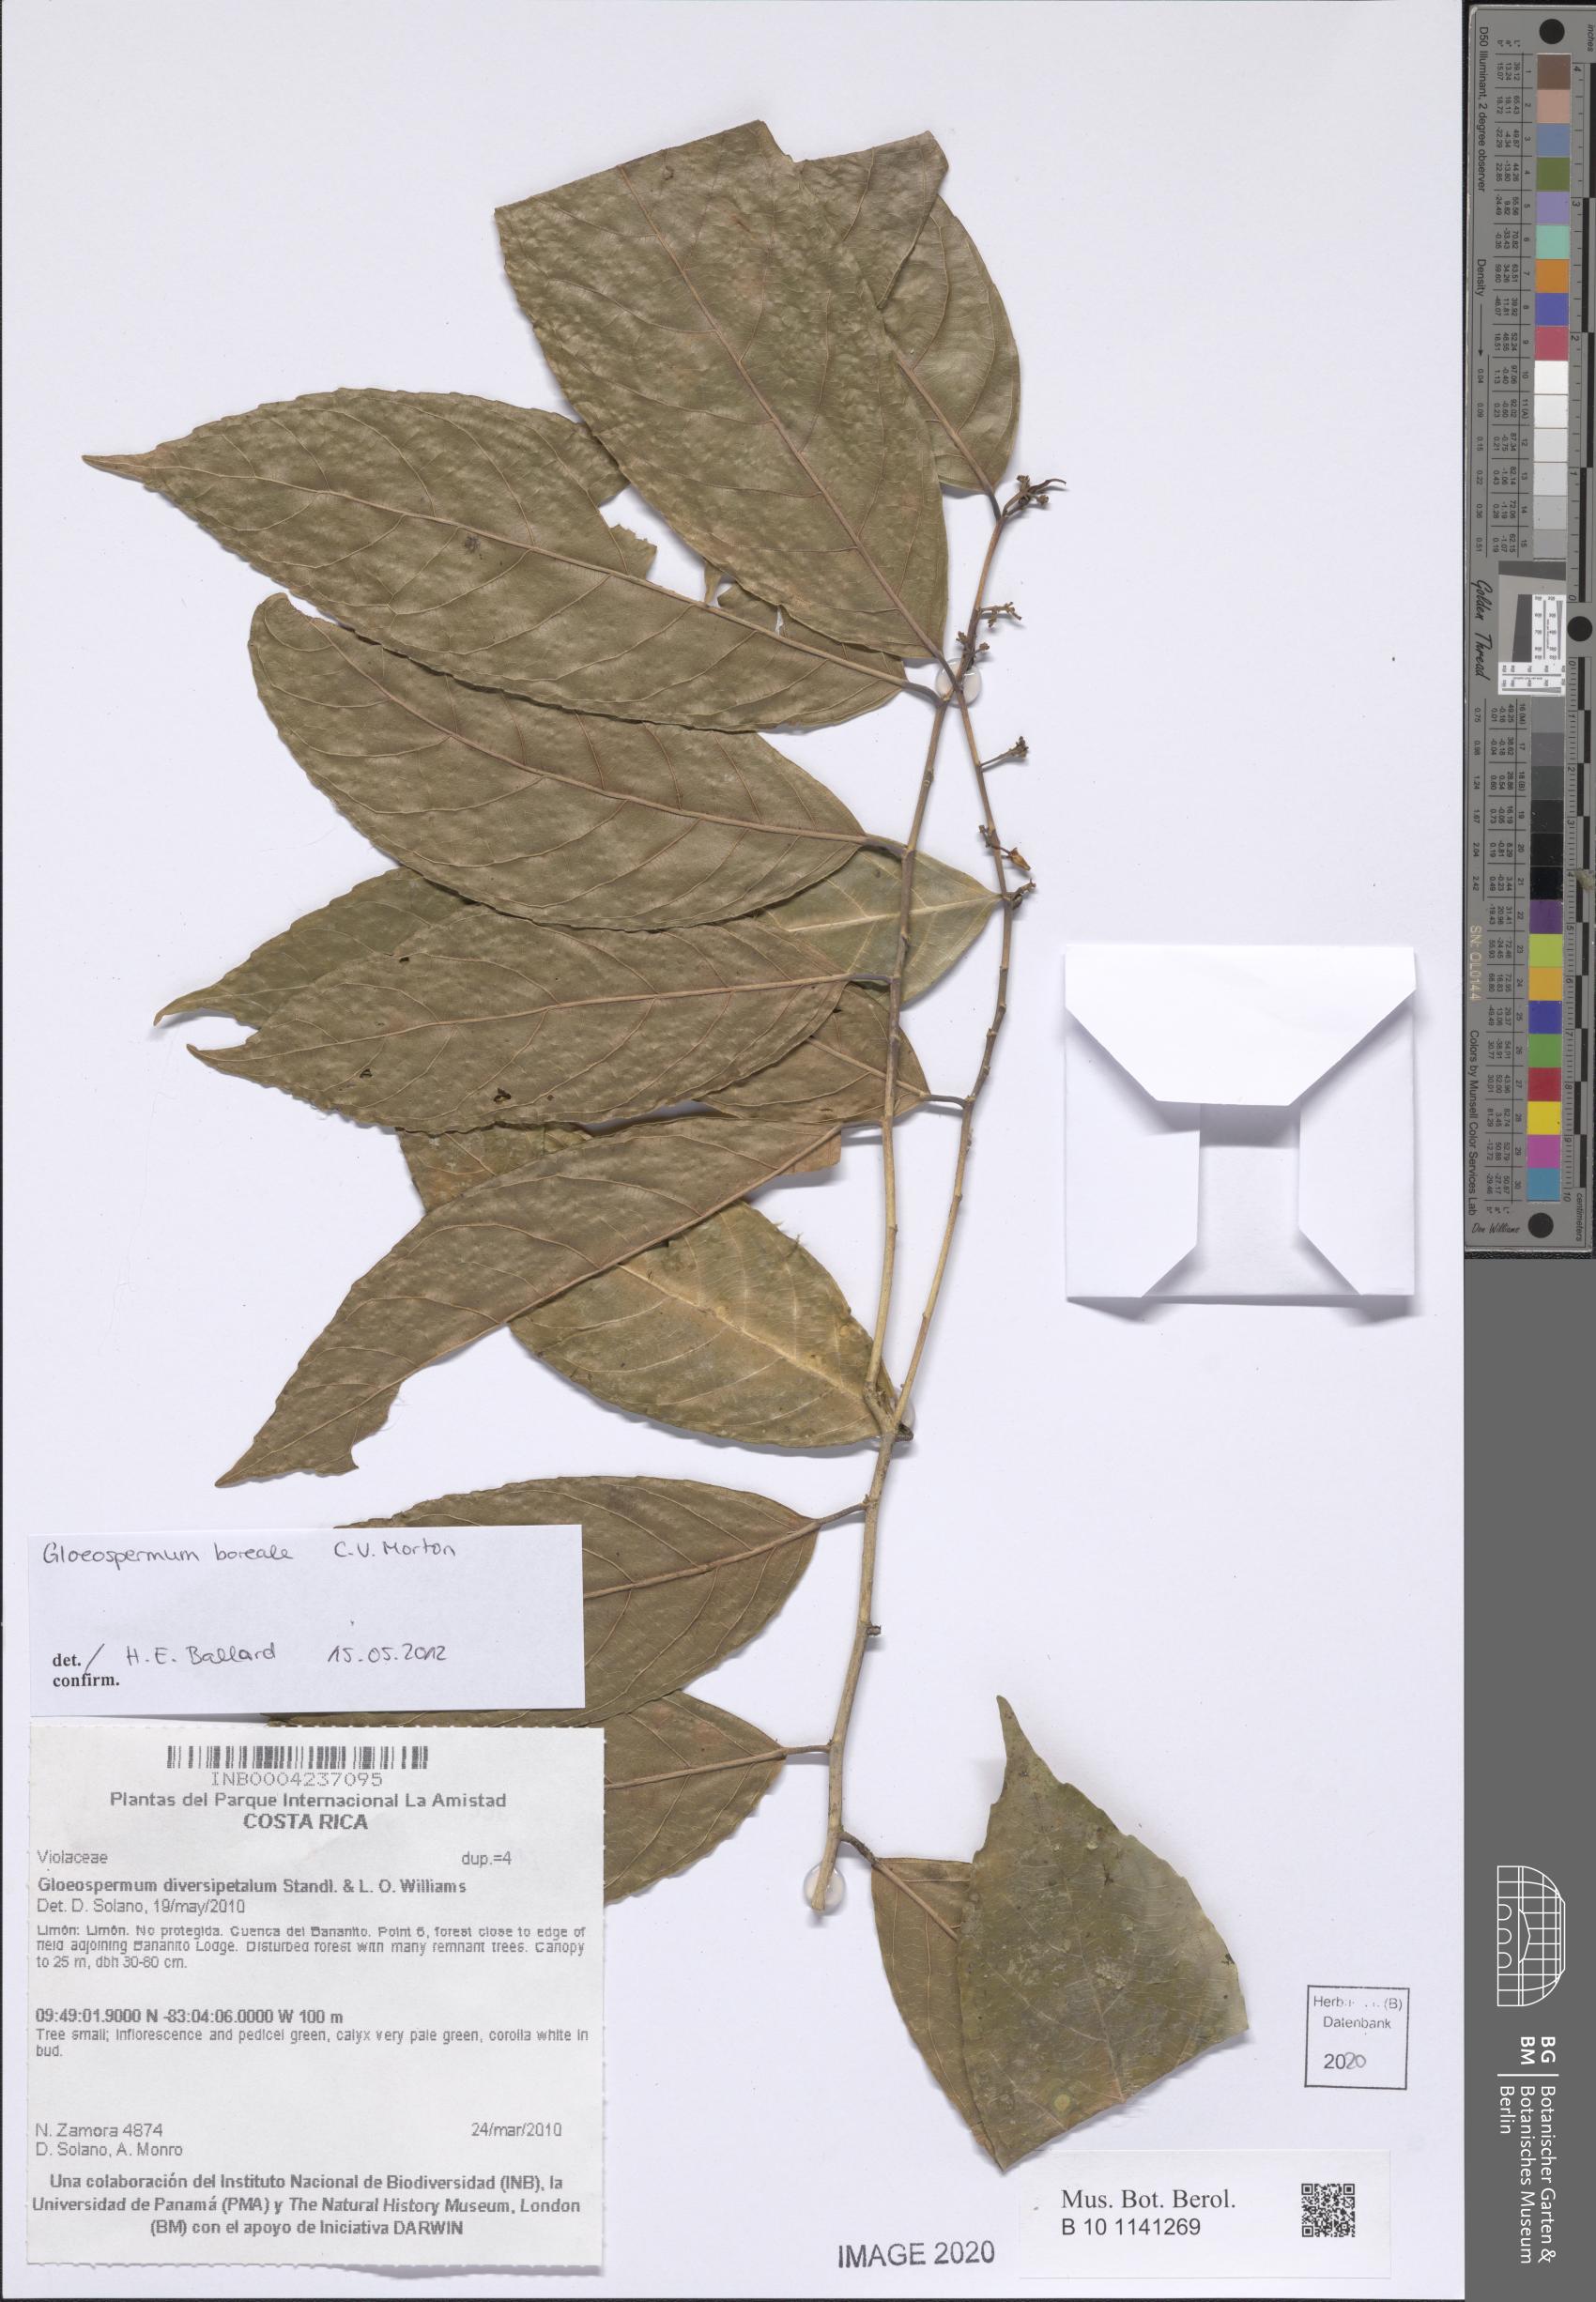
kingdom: Plantae
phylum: Tracheophyta
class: Magnoliopsida
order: Malpighiales
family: Violaceae
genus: Gloeospermum
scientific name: Gloeospermum boreale
